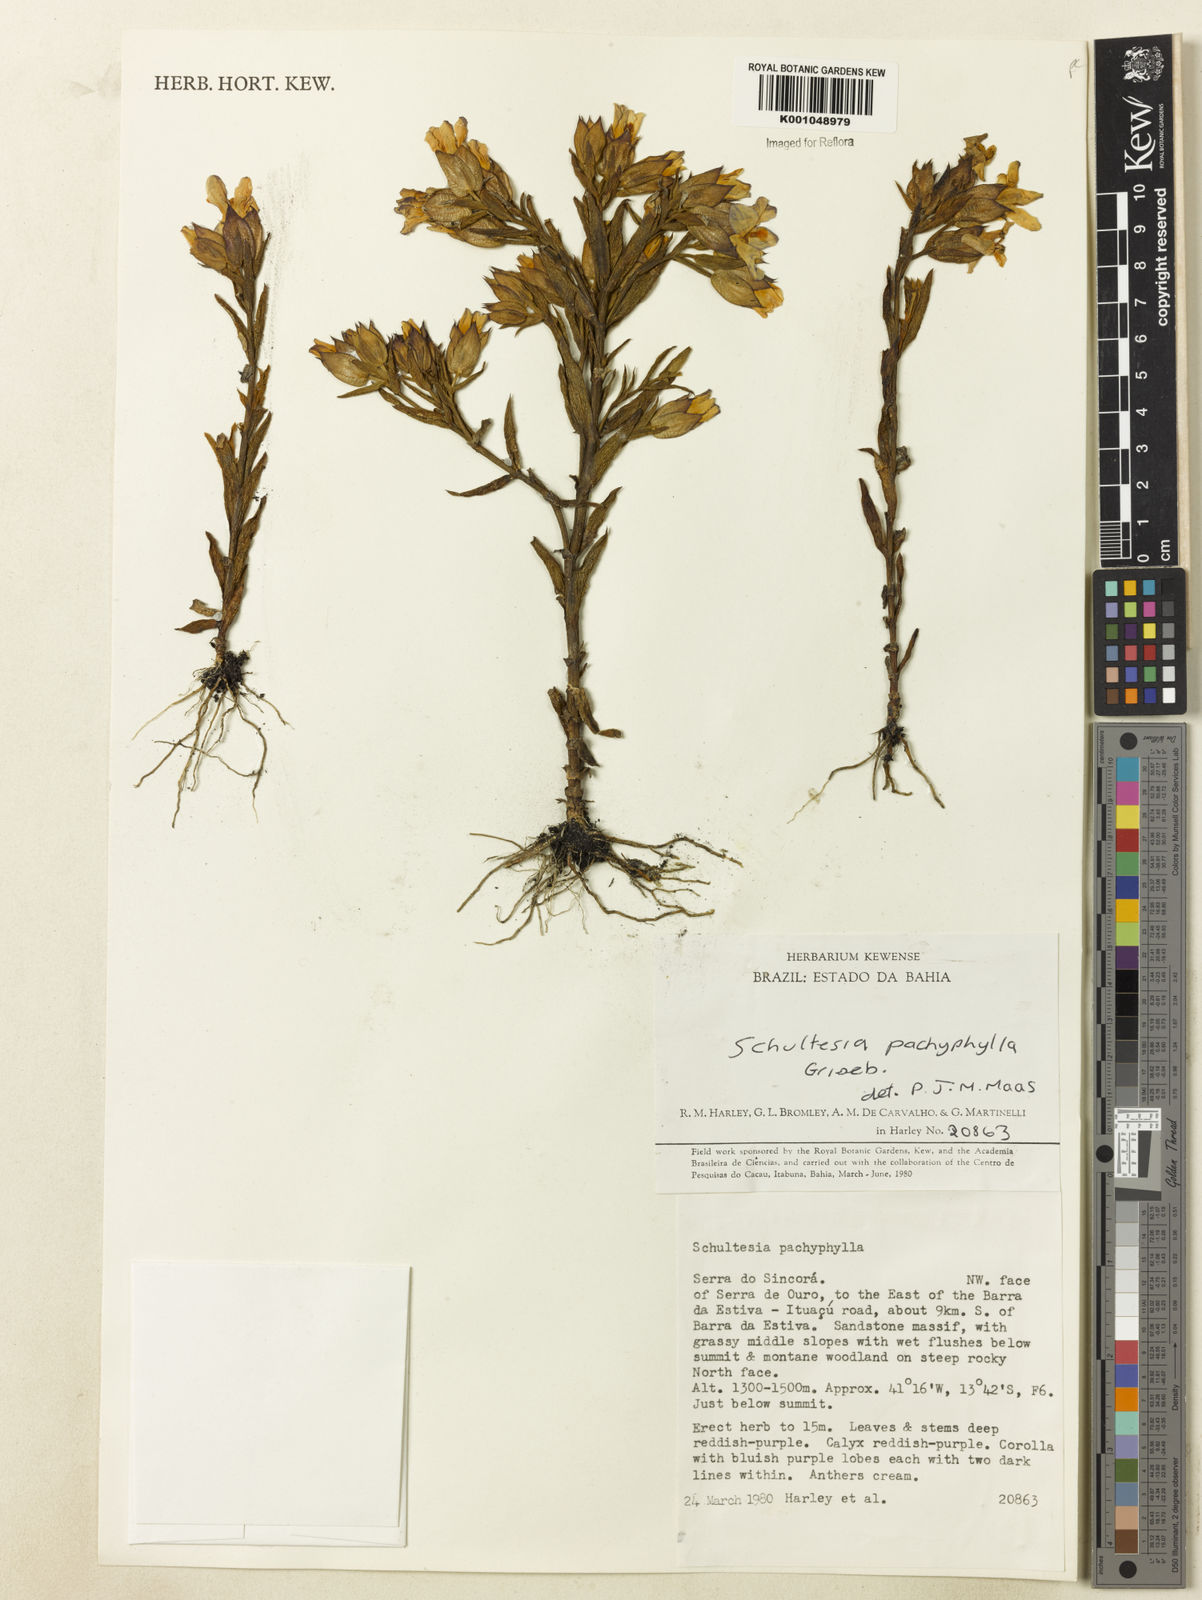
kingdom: Plantae
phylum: Tracheophyta
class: Magnoliopsida
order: Gentianales
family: Gentianaceae
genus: Schultesia
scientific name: Schultesia pachyphylla
